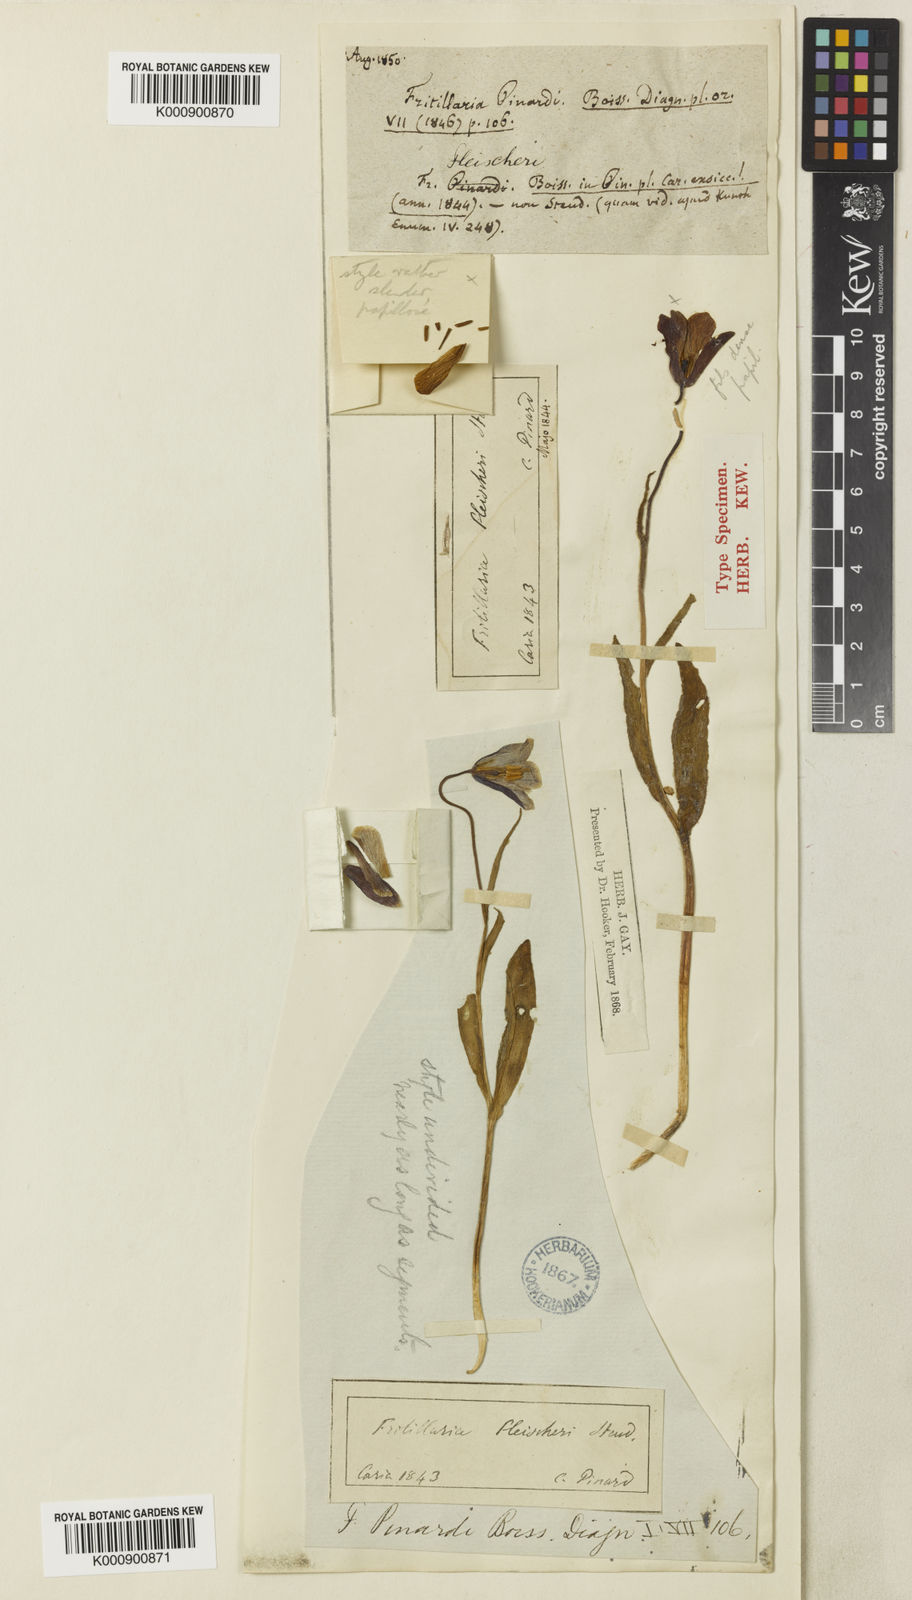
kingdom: Plantae
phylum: Tracheophyta
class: Liliopsida
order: Liliales
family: Liliaceae
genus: Fritillaria
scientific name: Fritillaria fleischeriana
